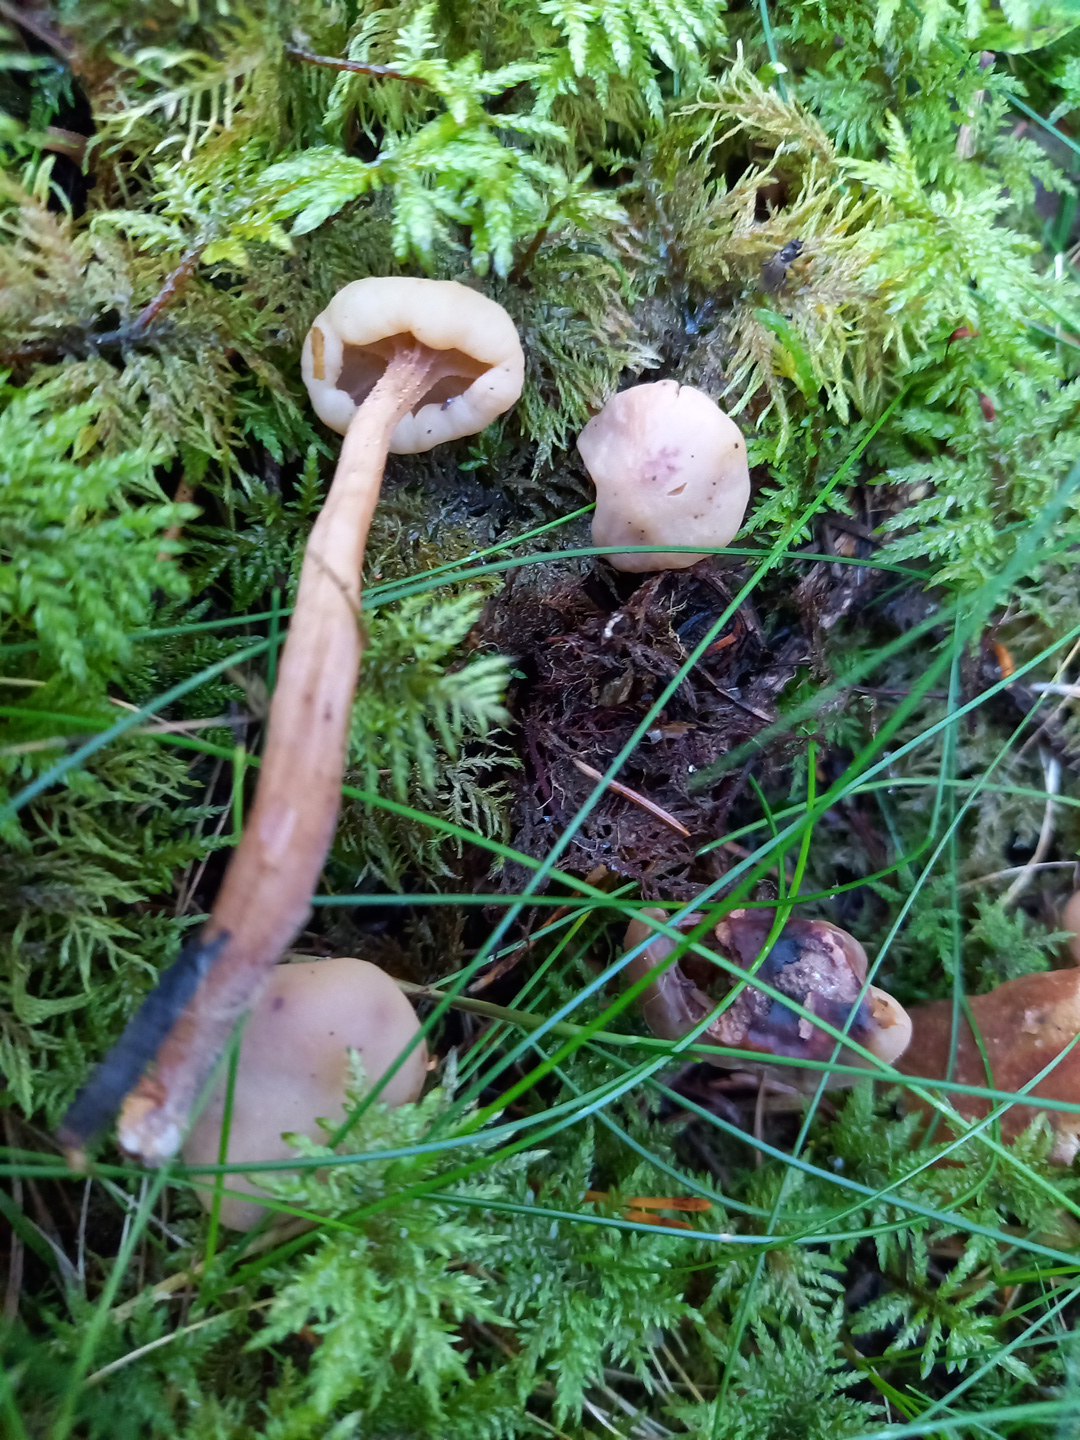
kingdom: Fungi
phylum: Ascomycota
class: Leotiomycetes
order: Rhytismatales
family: Cudoniaceae
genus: Cudonia
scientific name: Cudonia confusa
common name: ensfarvet hjelmmorkel
